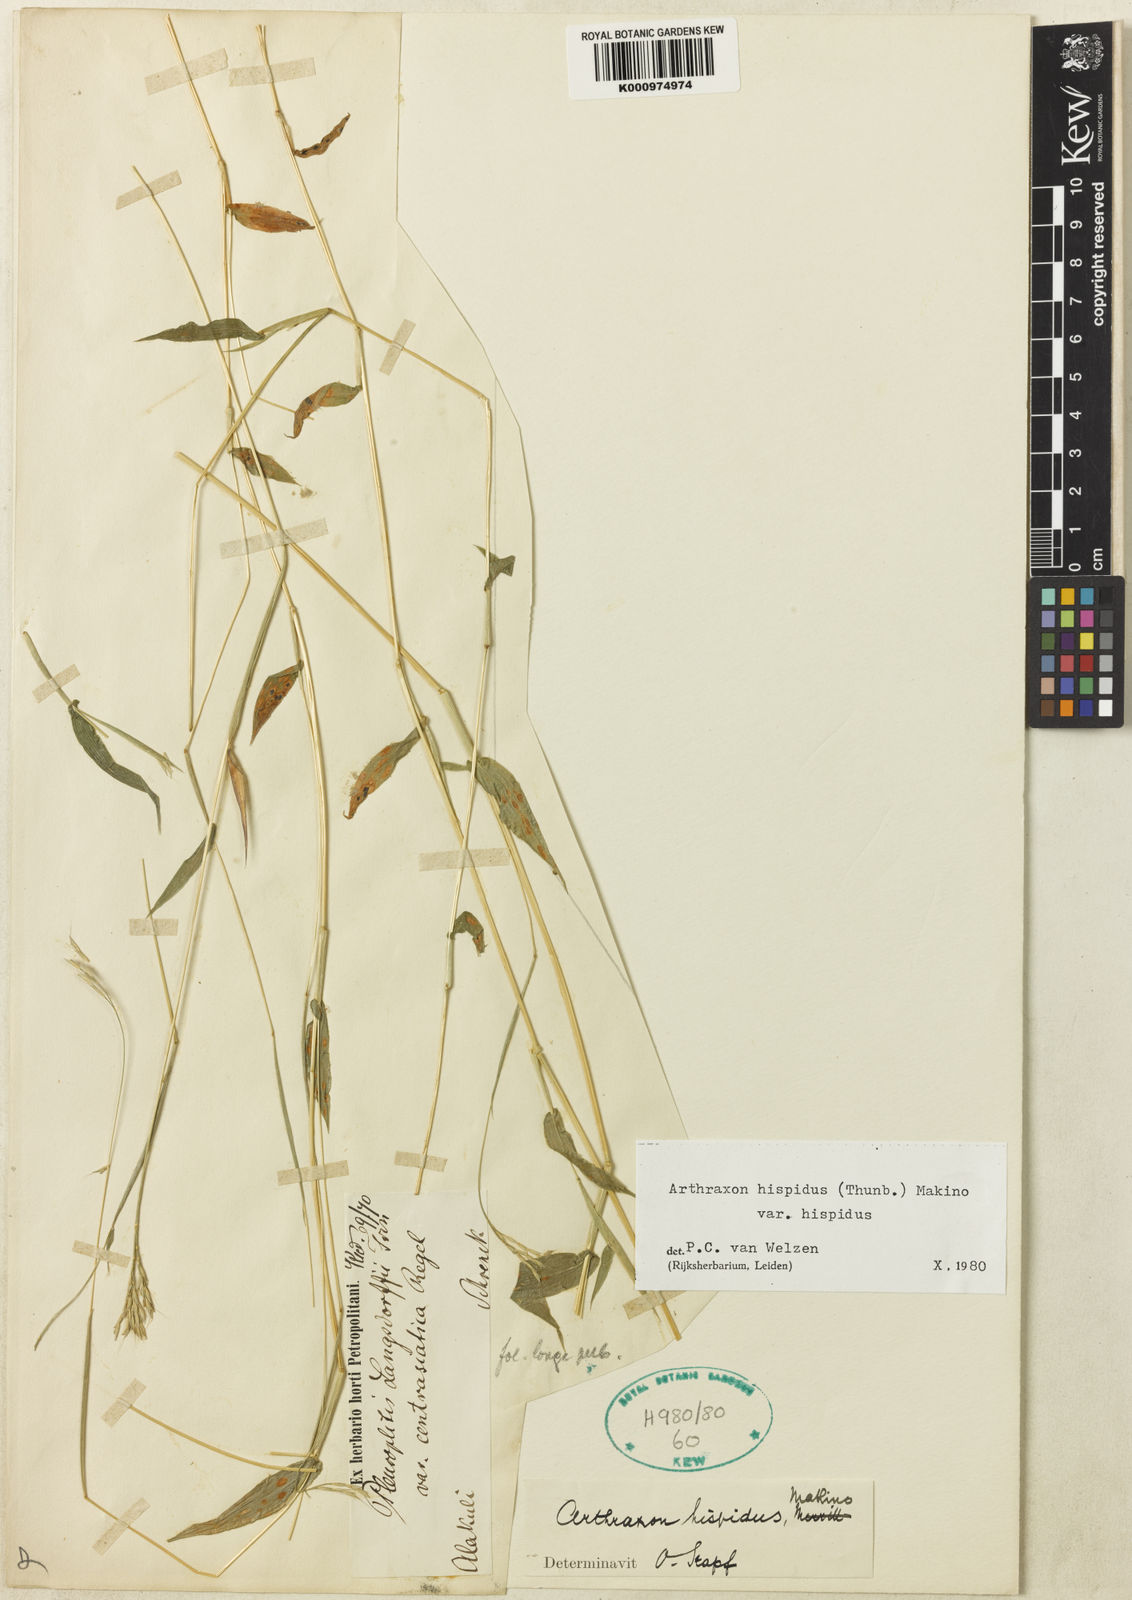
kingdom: Plantae
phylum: Tracheophyta
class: Liliopsida
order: Poales
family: Poaceae
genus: Arthraxon
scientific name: Arthraxon hispidus
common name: Small carpgrass
